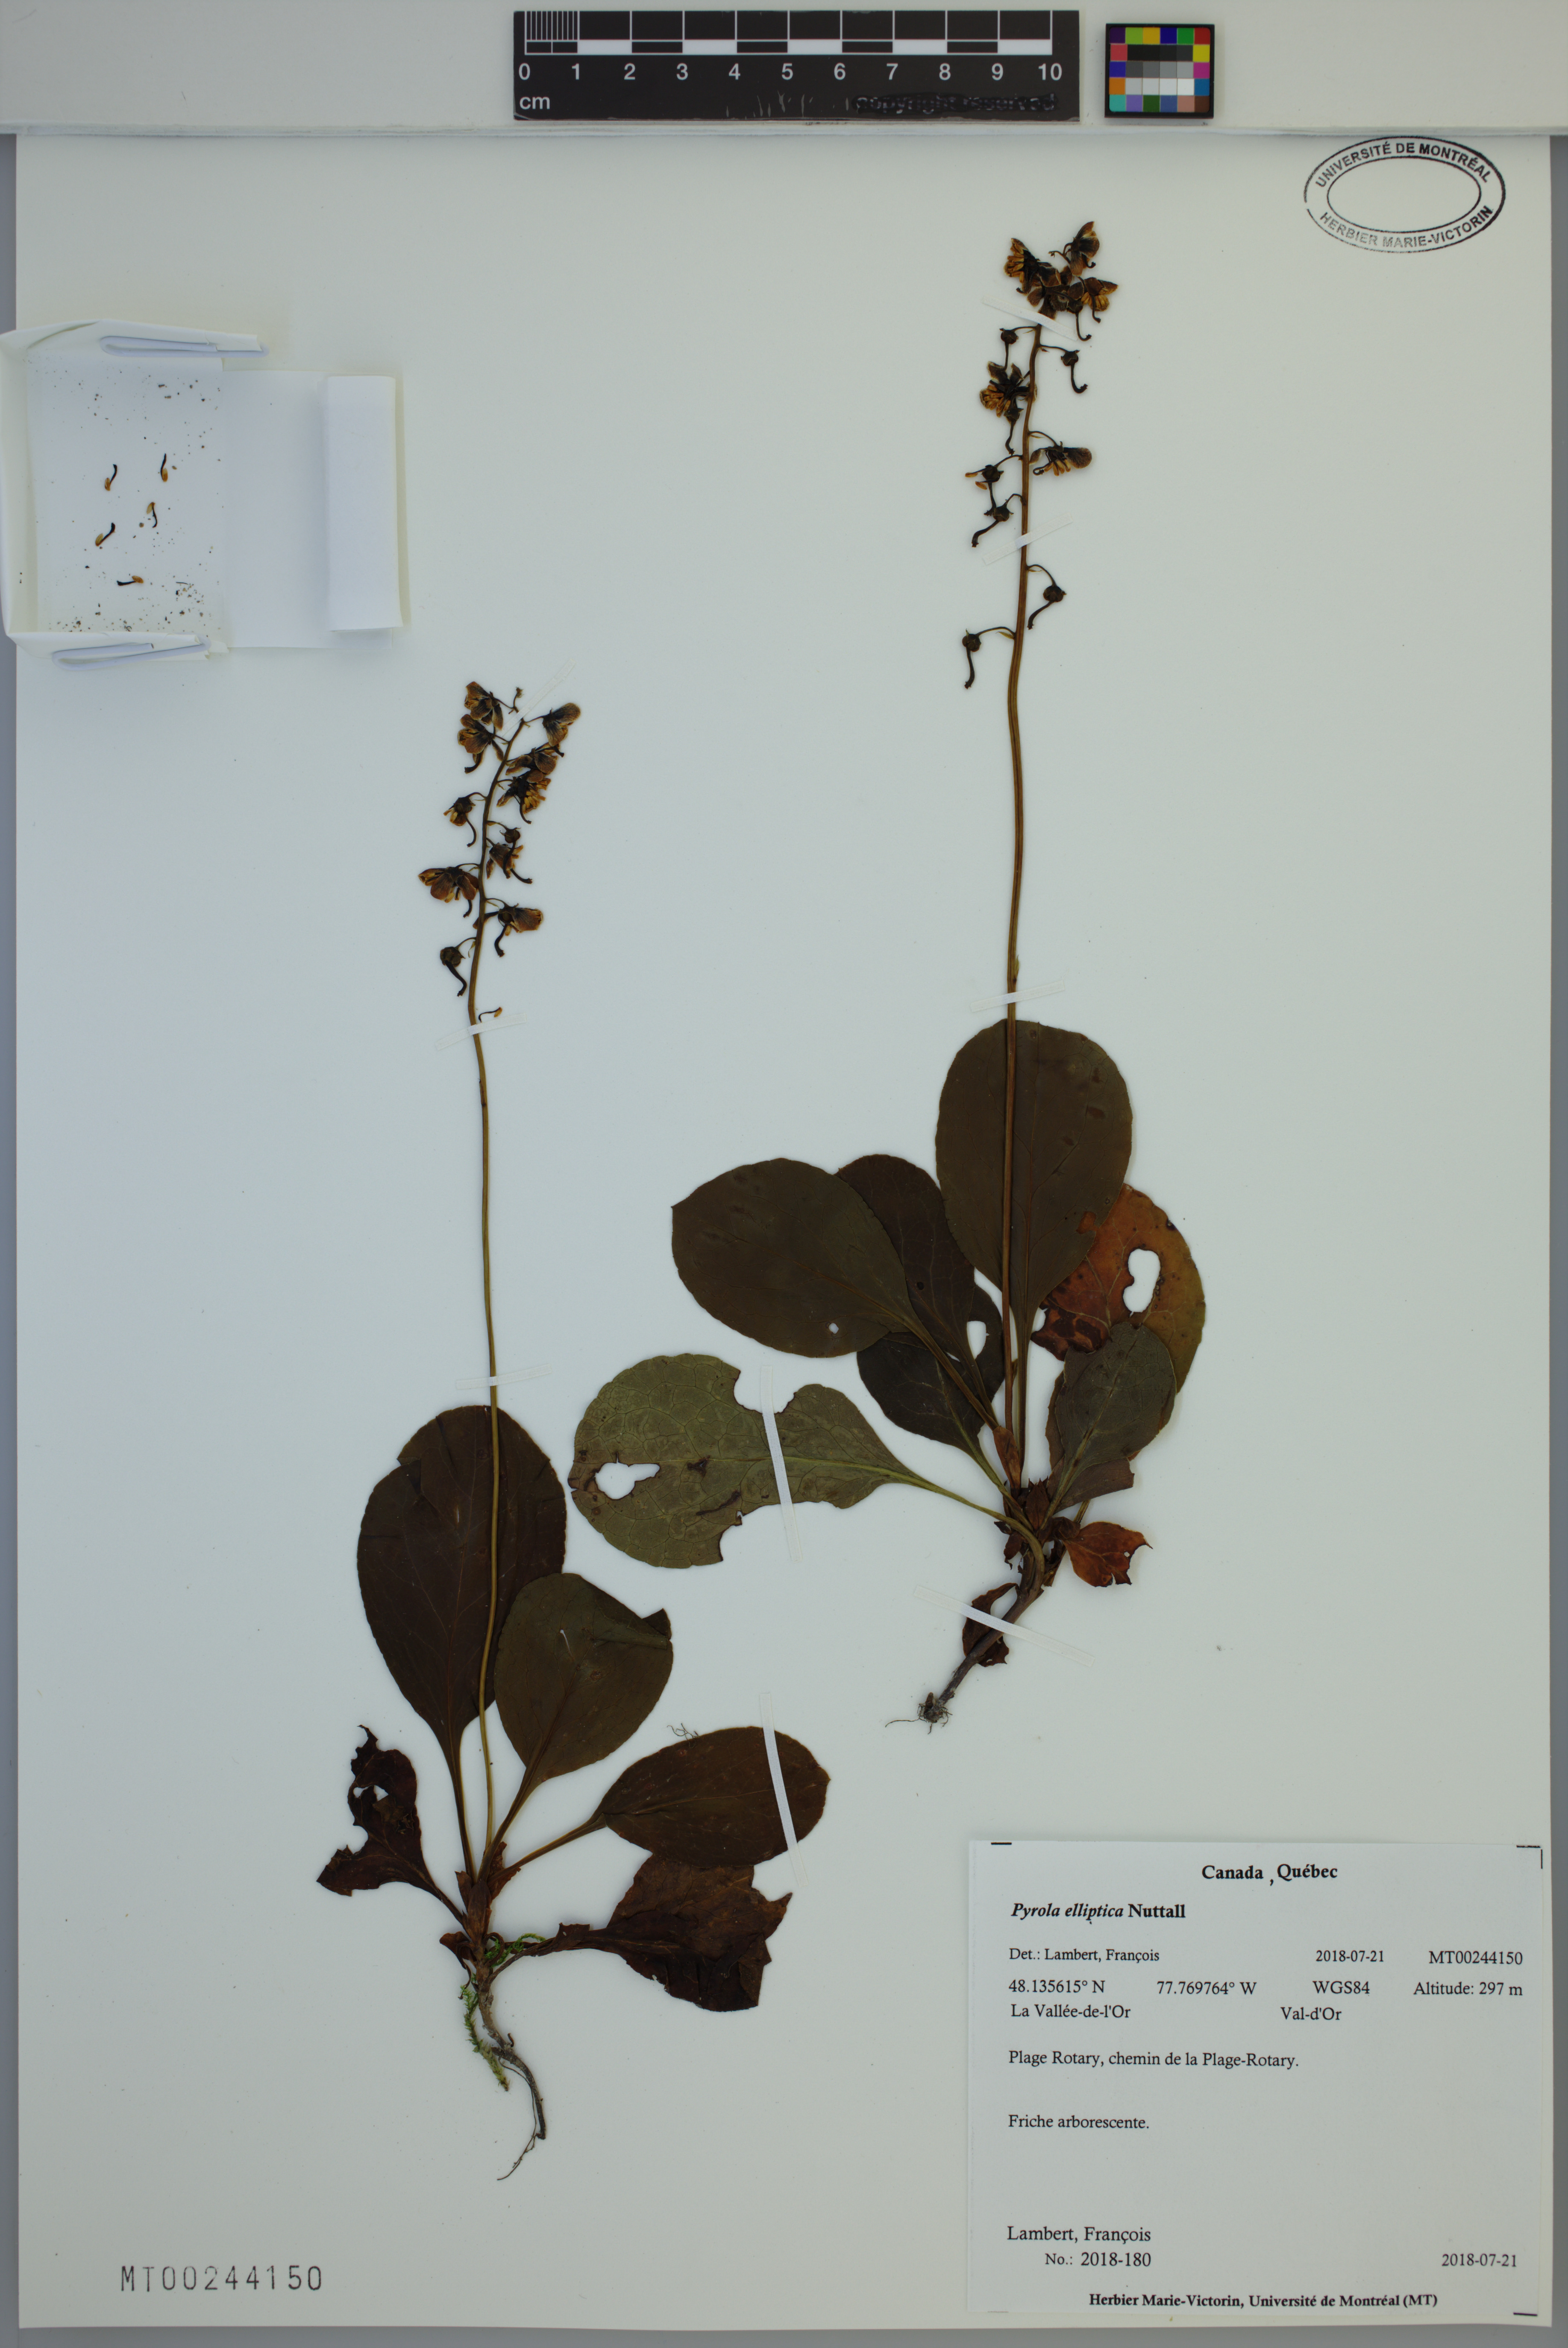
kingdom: Plantae
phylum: Tracheophyta
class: Magnoliopsida
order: Ericales
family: Ericaceae
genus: Pyrola
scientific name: Pyrola elliptica
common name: Shinleaf
